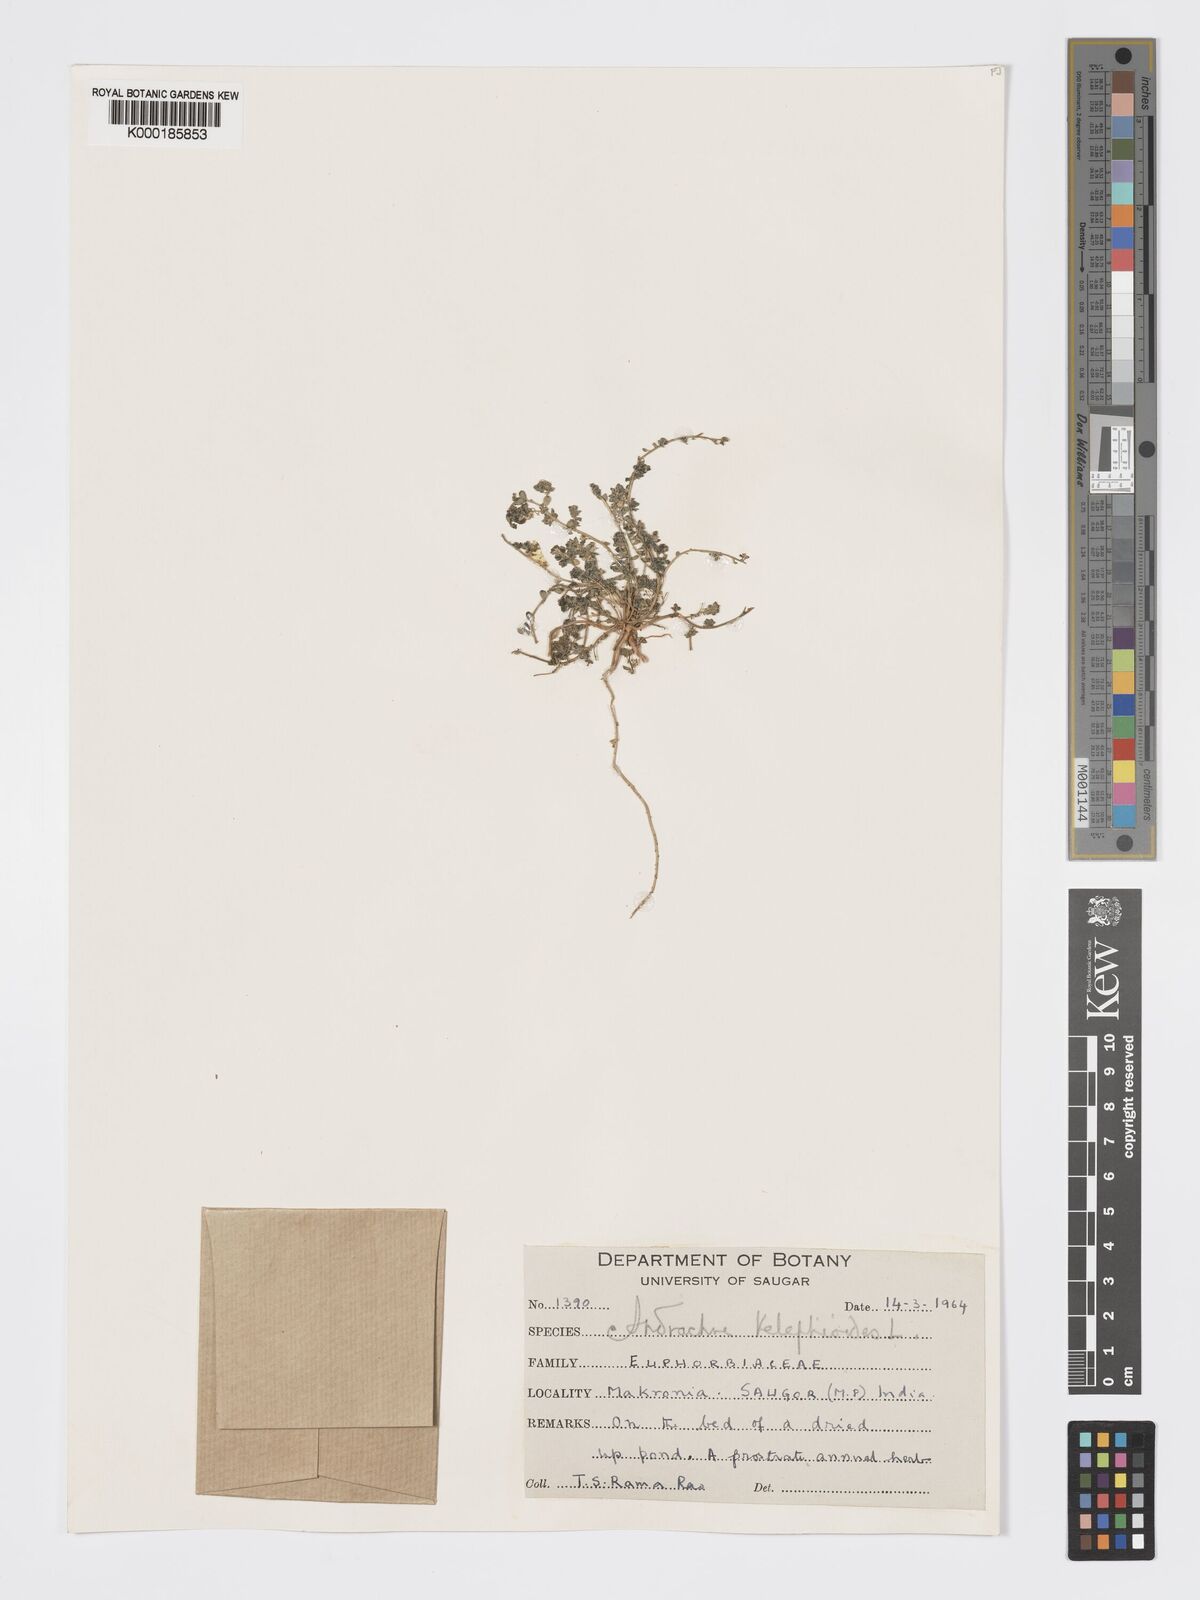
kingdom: Plantae
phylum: Tracheophyta
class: Magnoliopsida
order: Malpighiales
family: Phyllanthaceae
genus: Andrachne
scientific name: Andrachne telephioides
